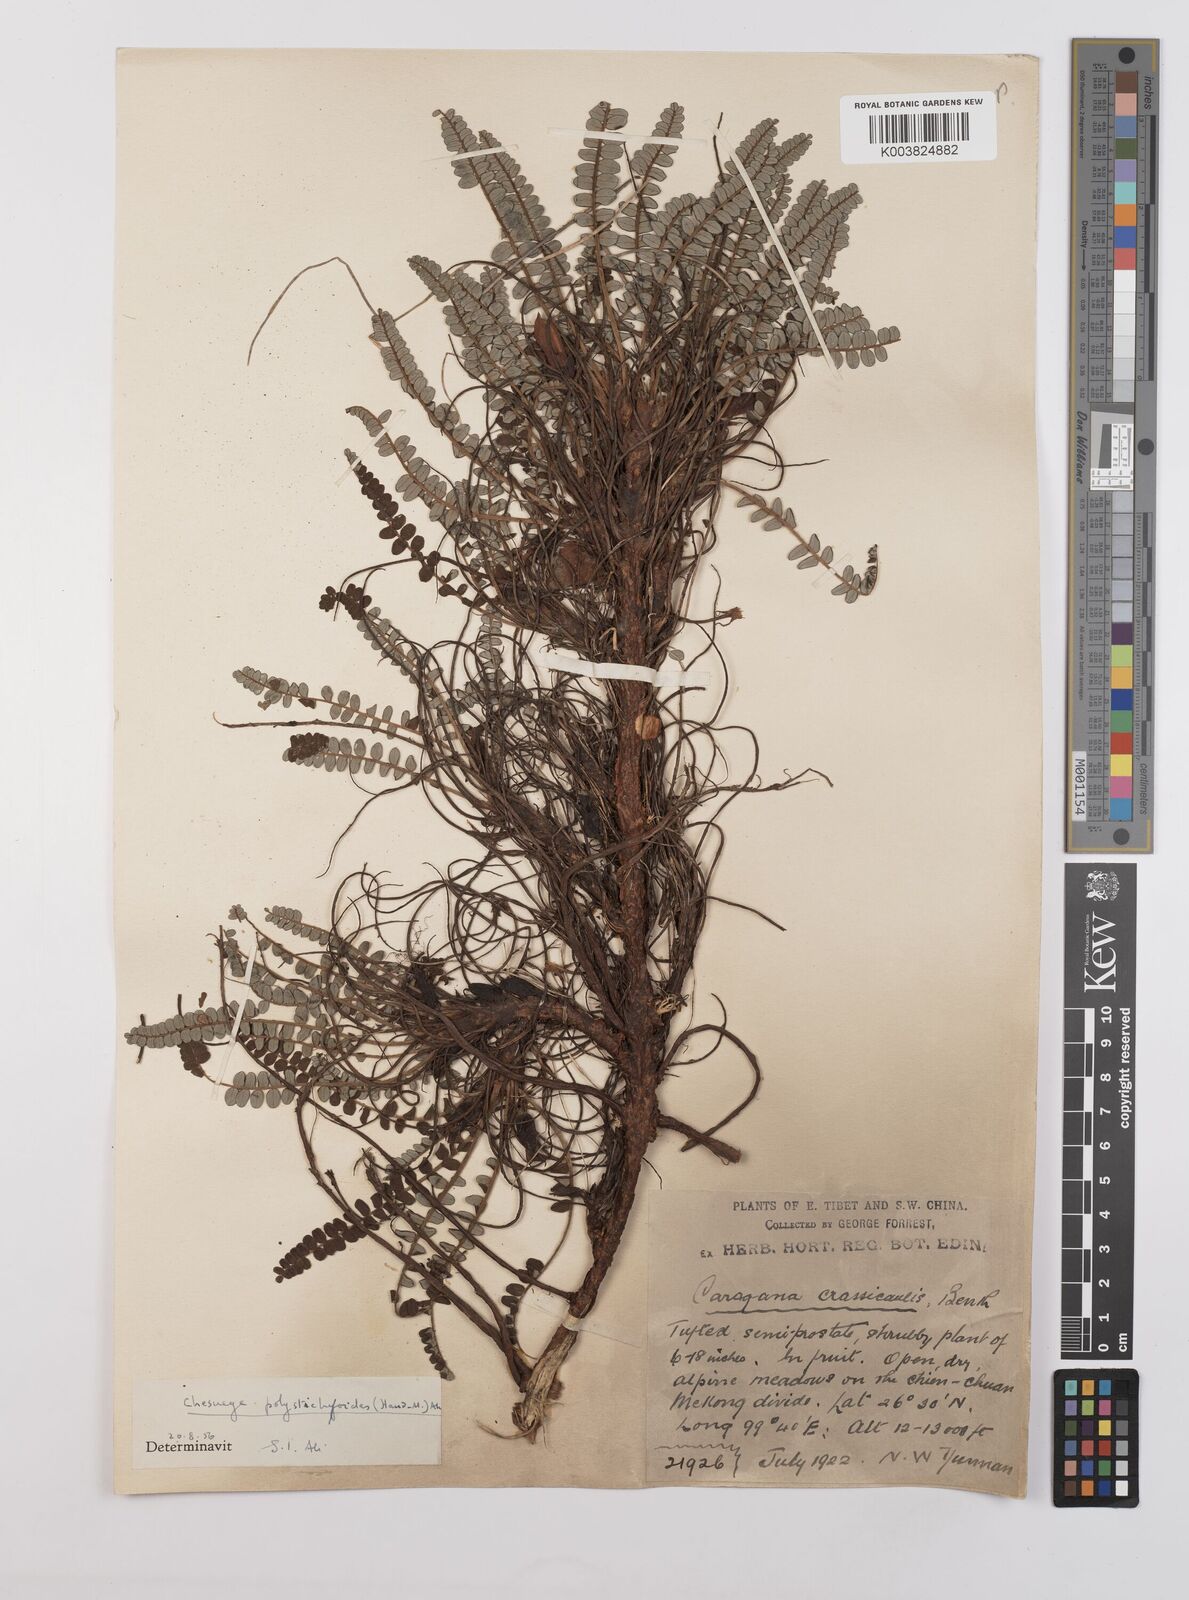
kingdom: Plantae
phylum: Tracheophyta
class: Magnoliopsida
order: Fabales
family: Fabaceae
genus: Chesneya
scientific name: Chesneya polystichoides
